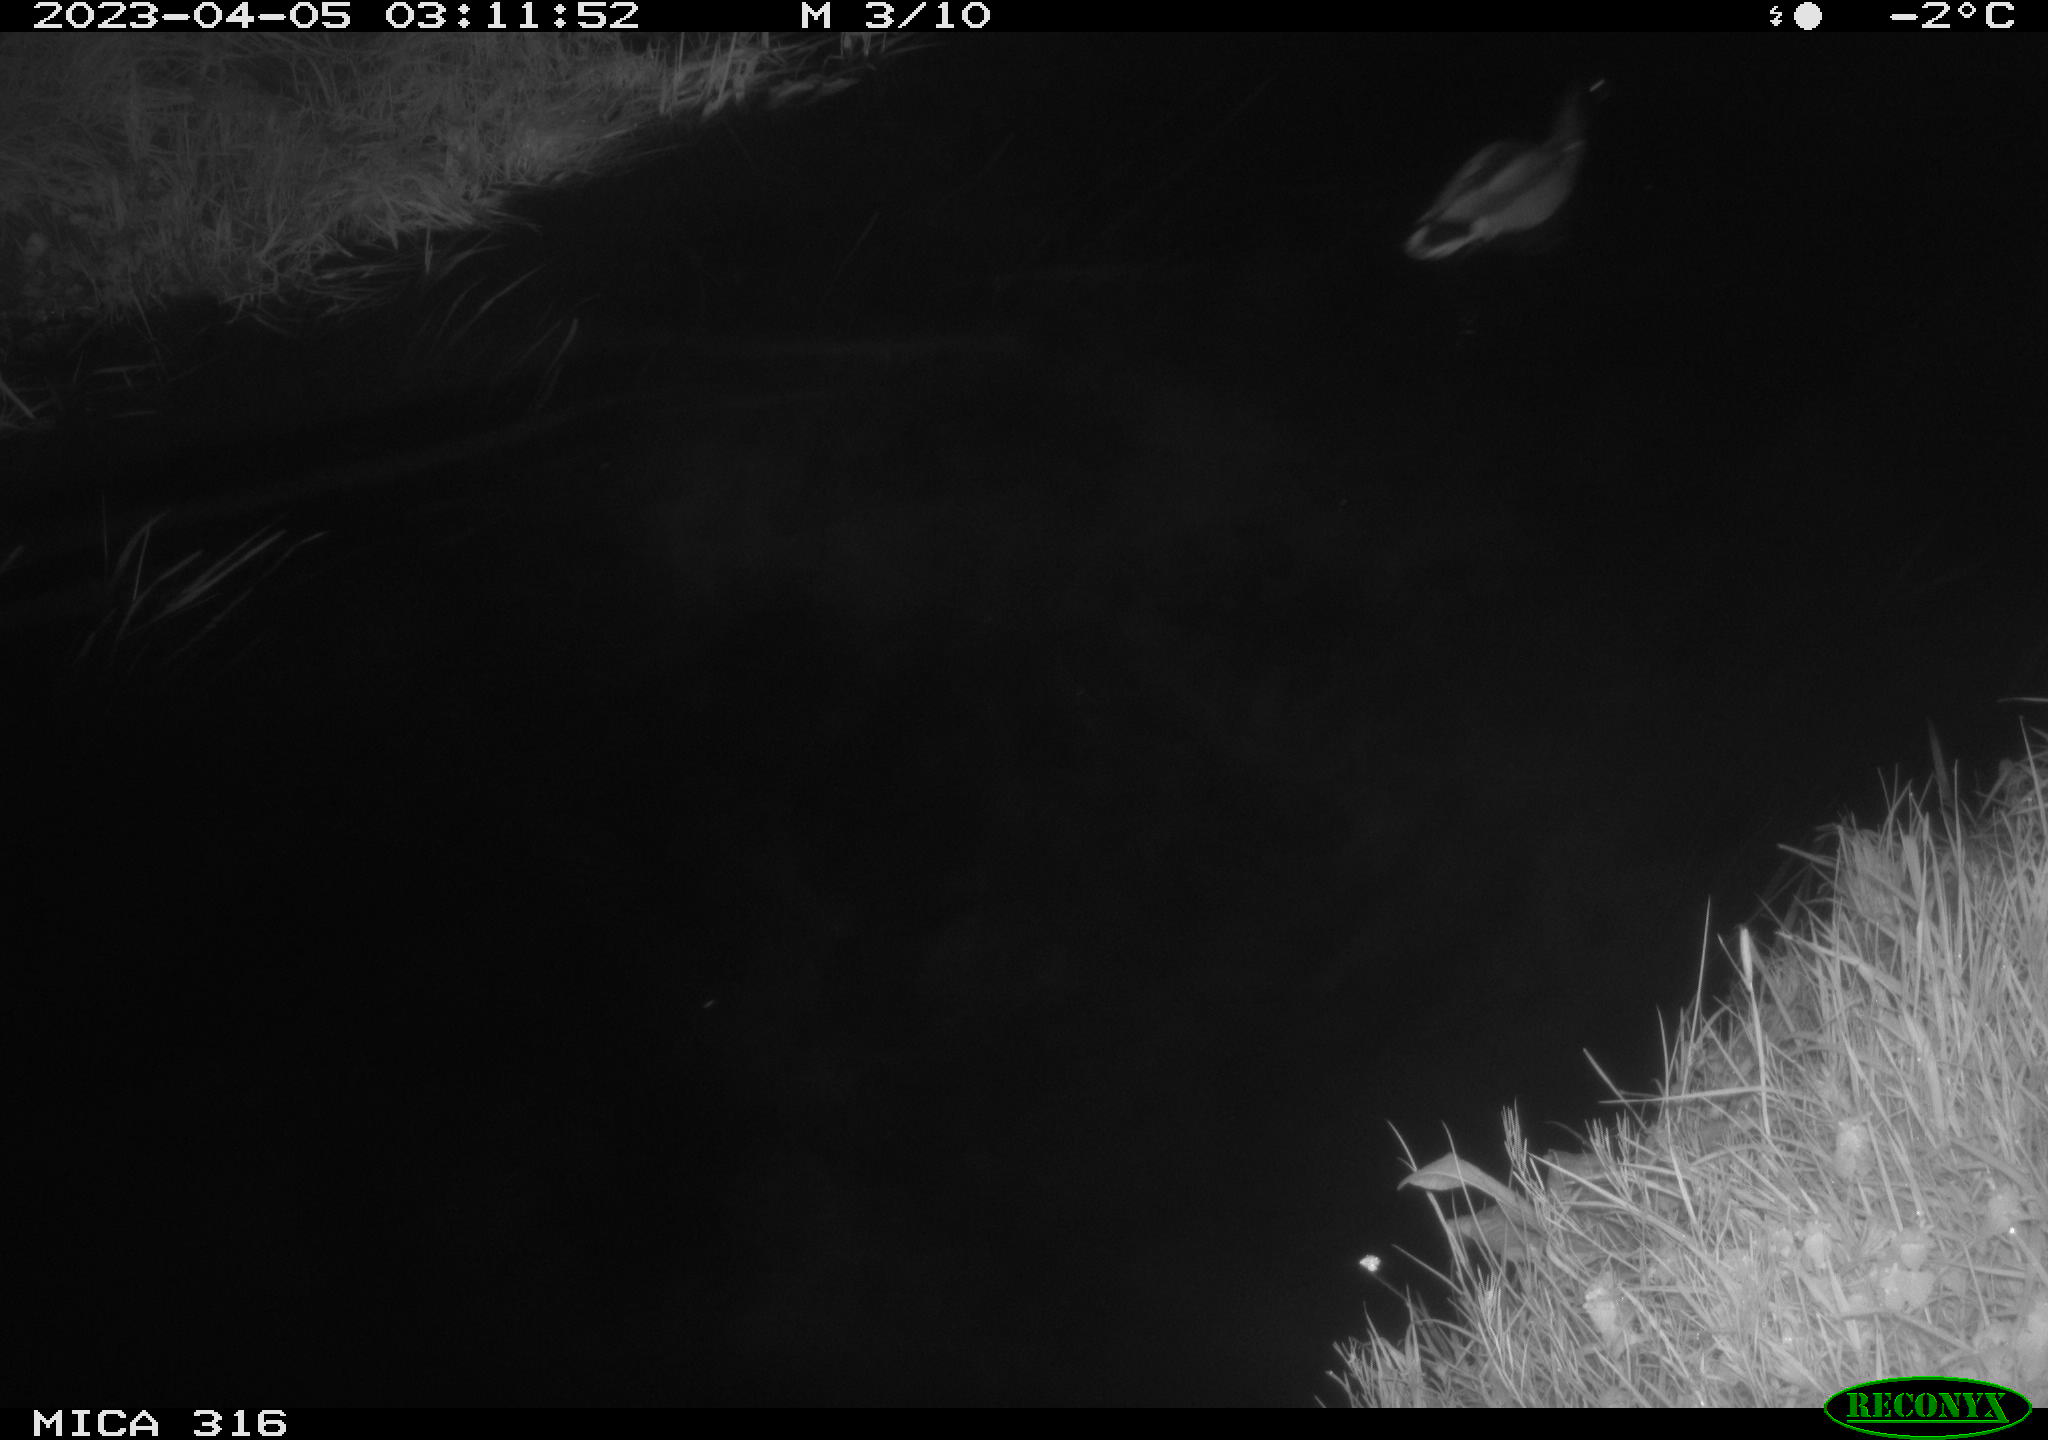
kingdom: Animalia
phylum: Chordata
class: Aves
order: Anseriformes
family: Anatidae
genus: Anas
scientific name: Anas
